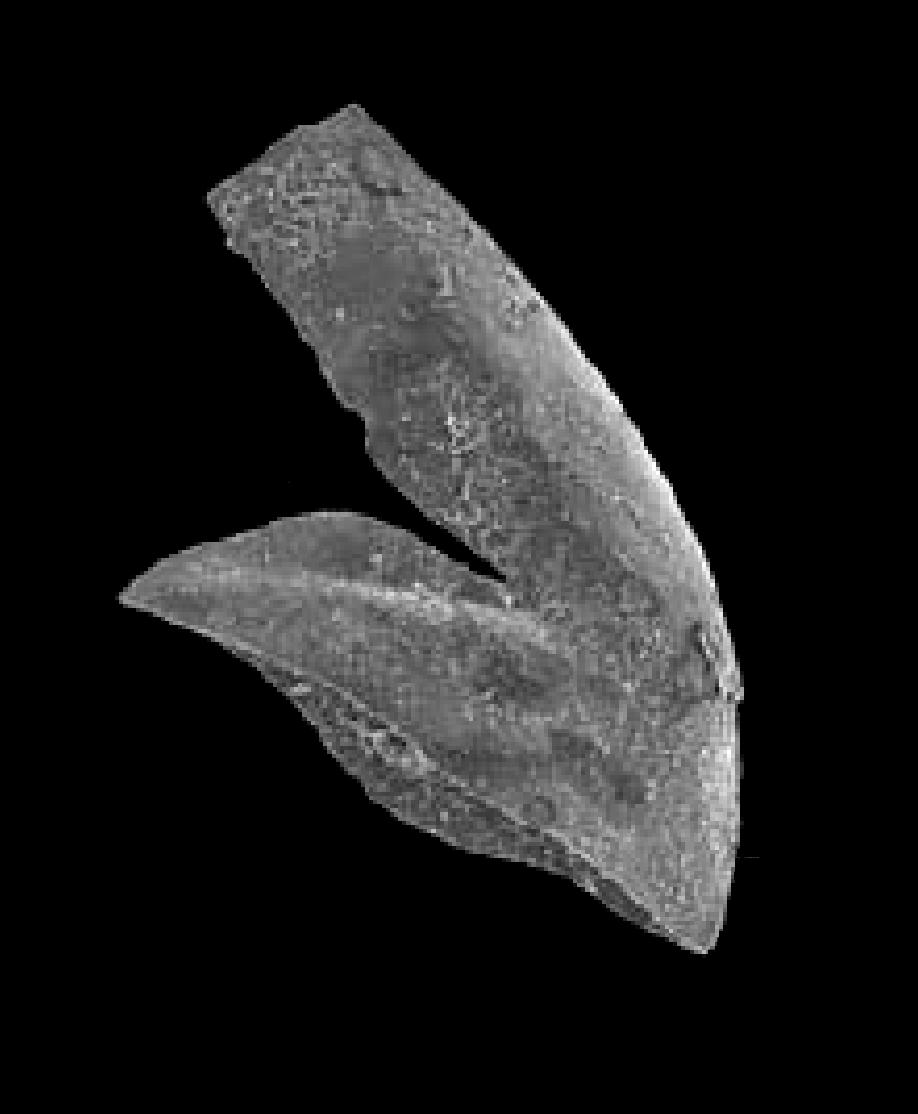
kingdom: Animalia
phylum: Chordata
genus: Periodon
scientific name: Periodon aculeatus
